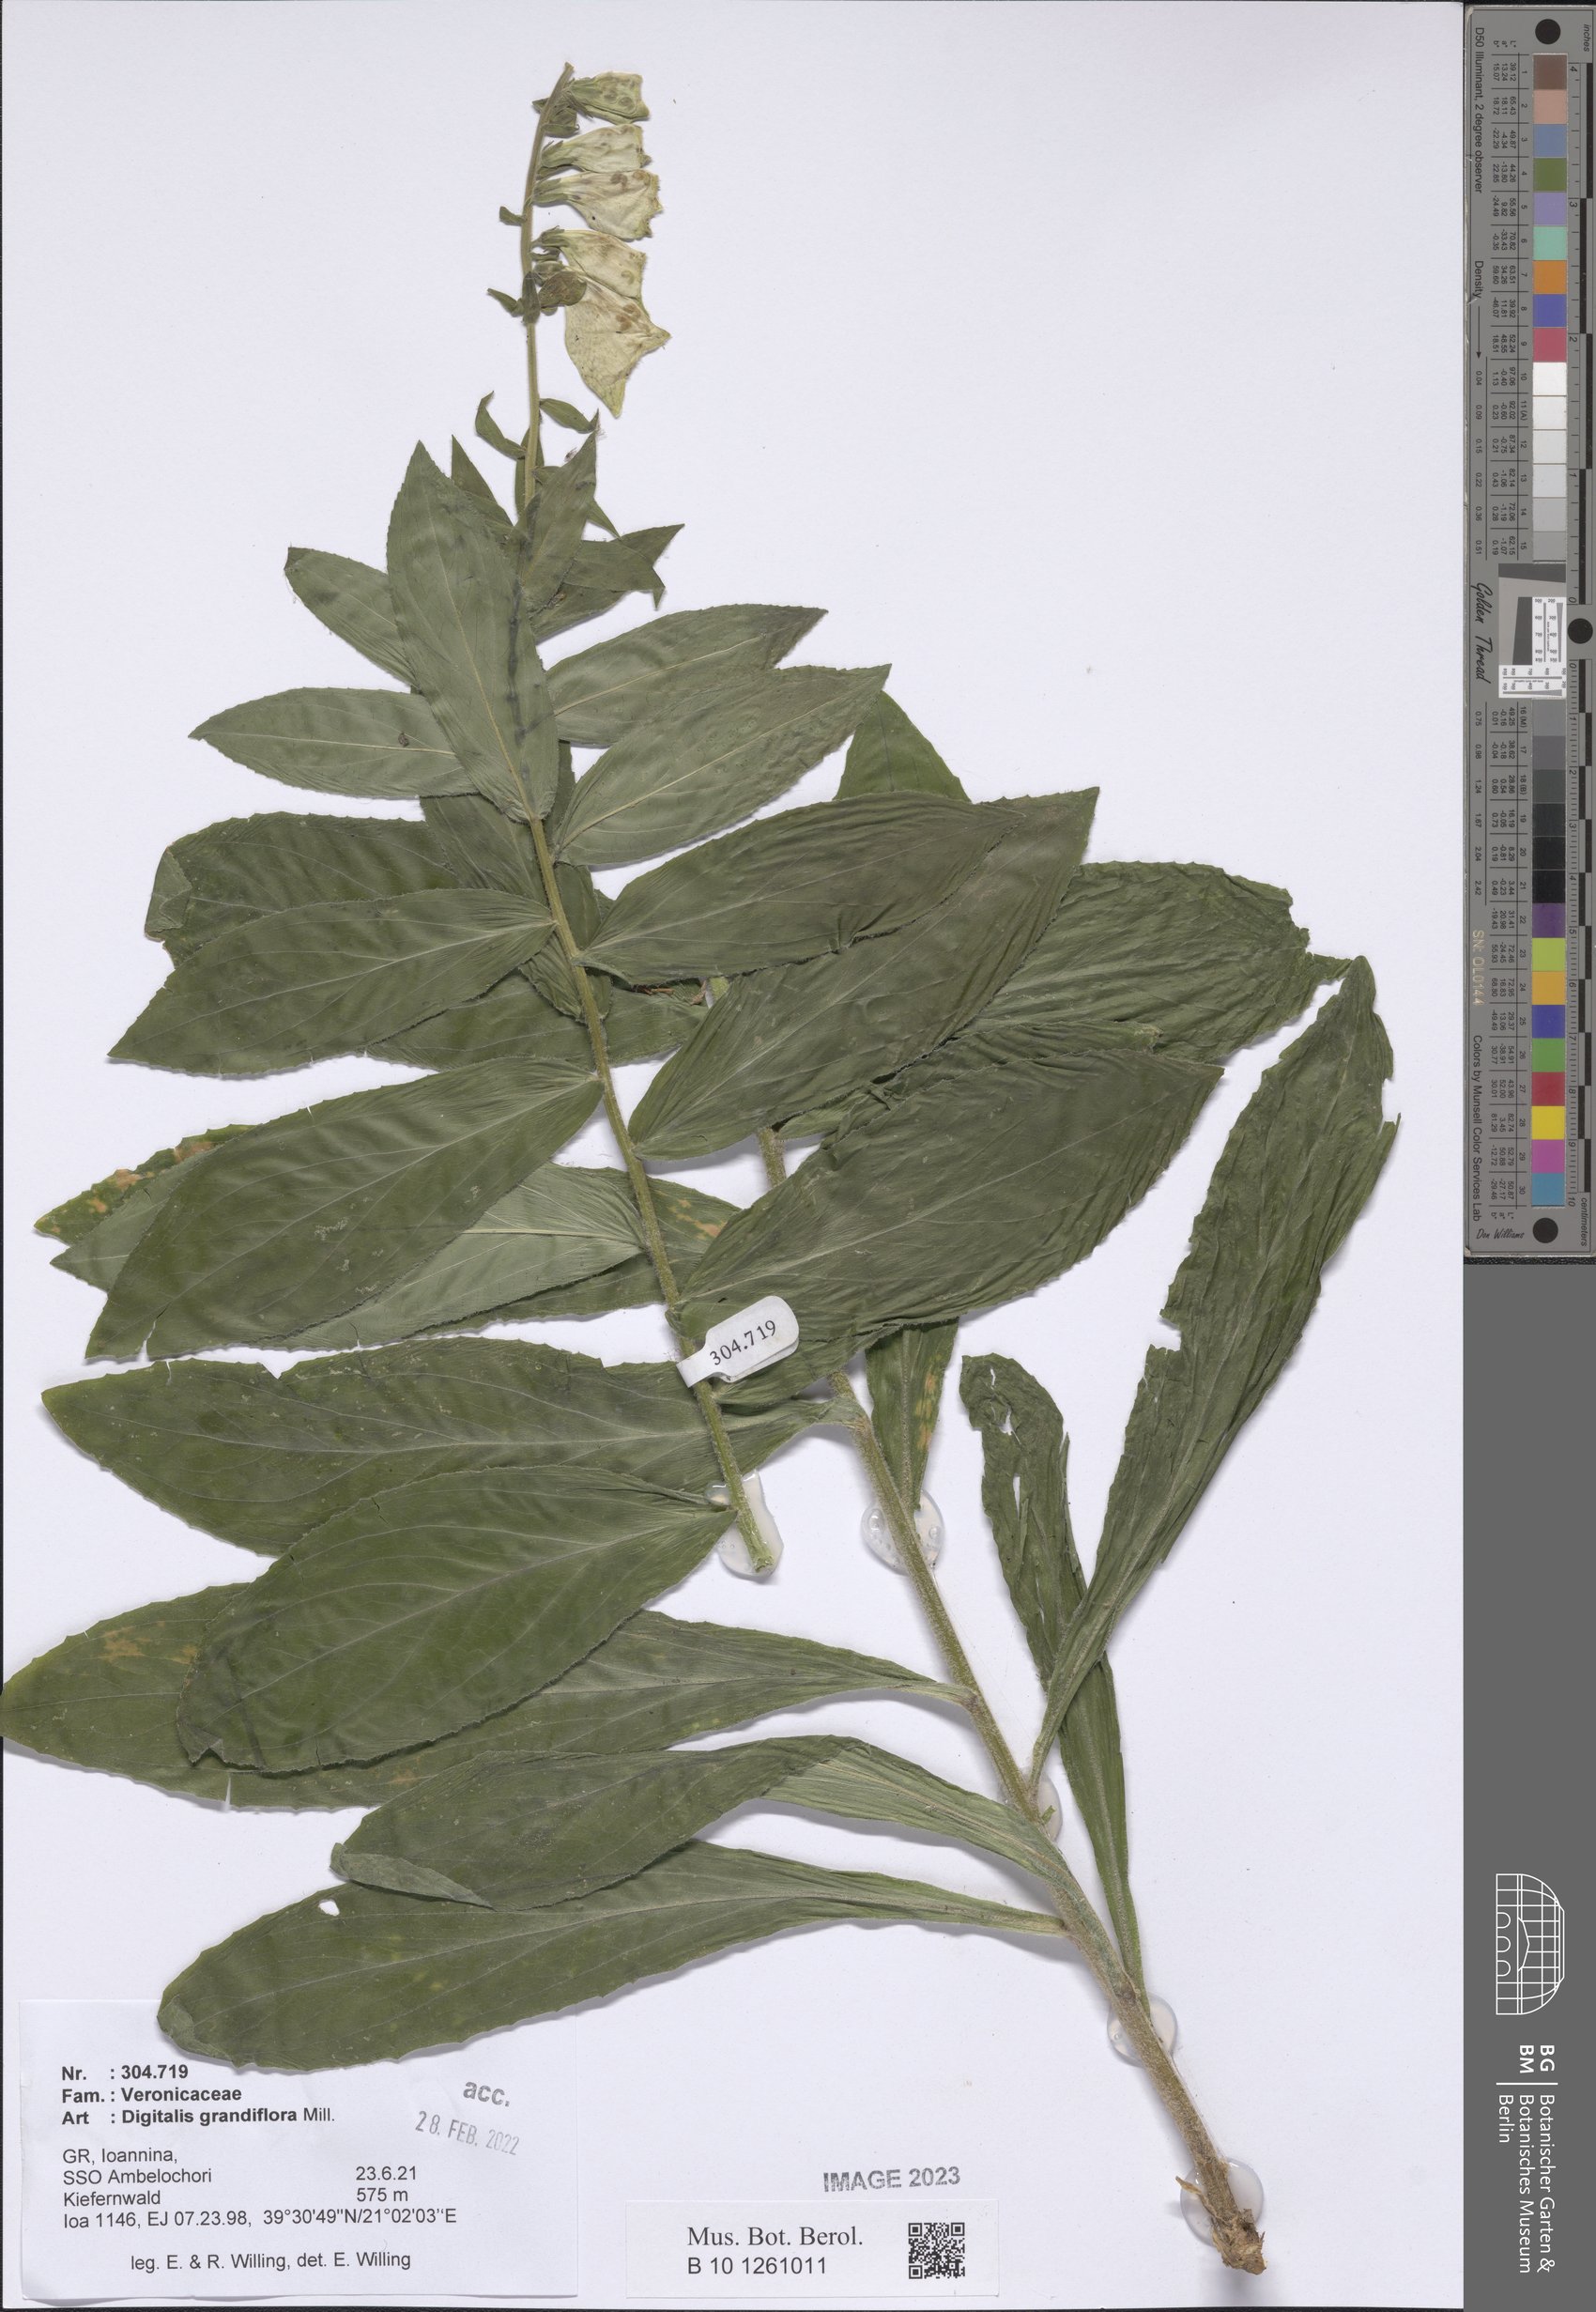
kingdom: Plantae
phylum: Tracheophyta
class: Magnoliopsida
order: Lamiales
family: Plantaginaceae
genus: Digitalis
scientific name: Digitalis grandiflora
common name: Yellow foxglove
